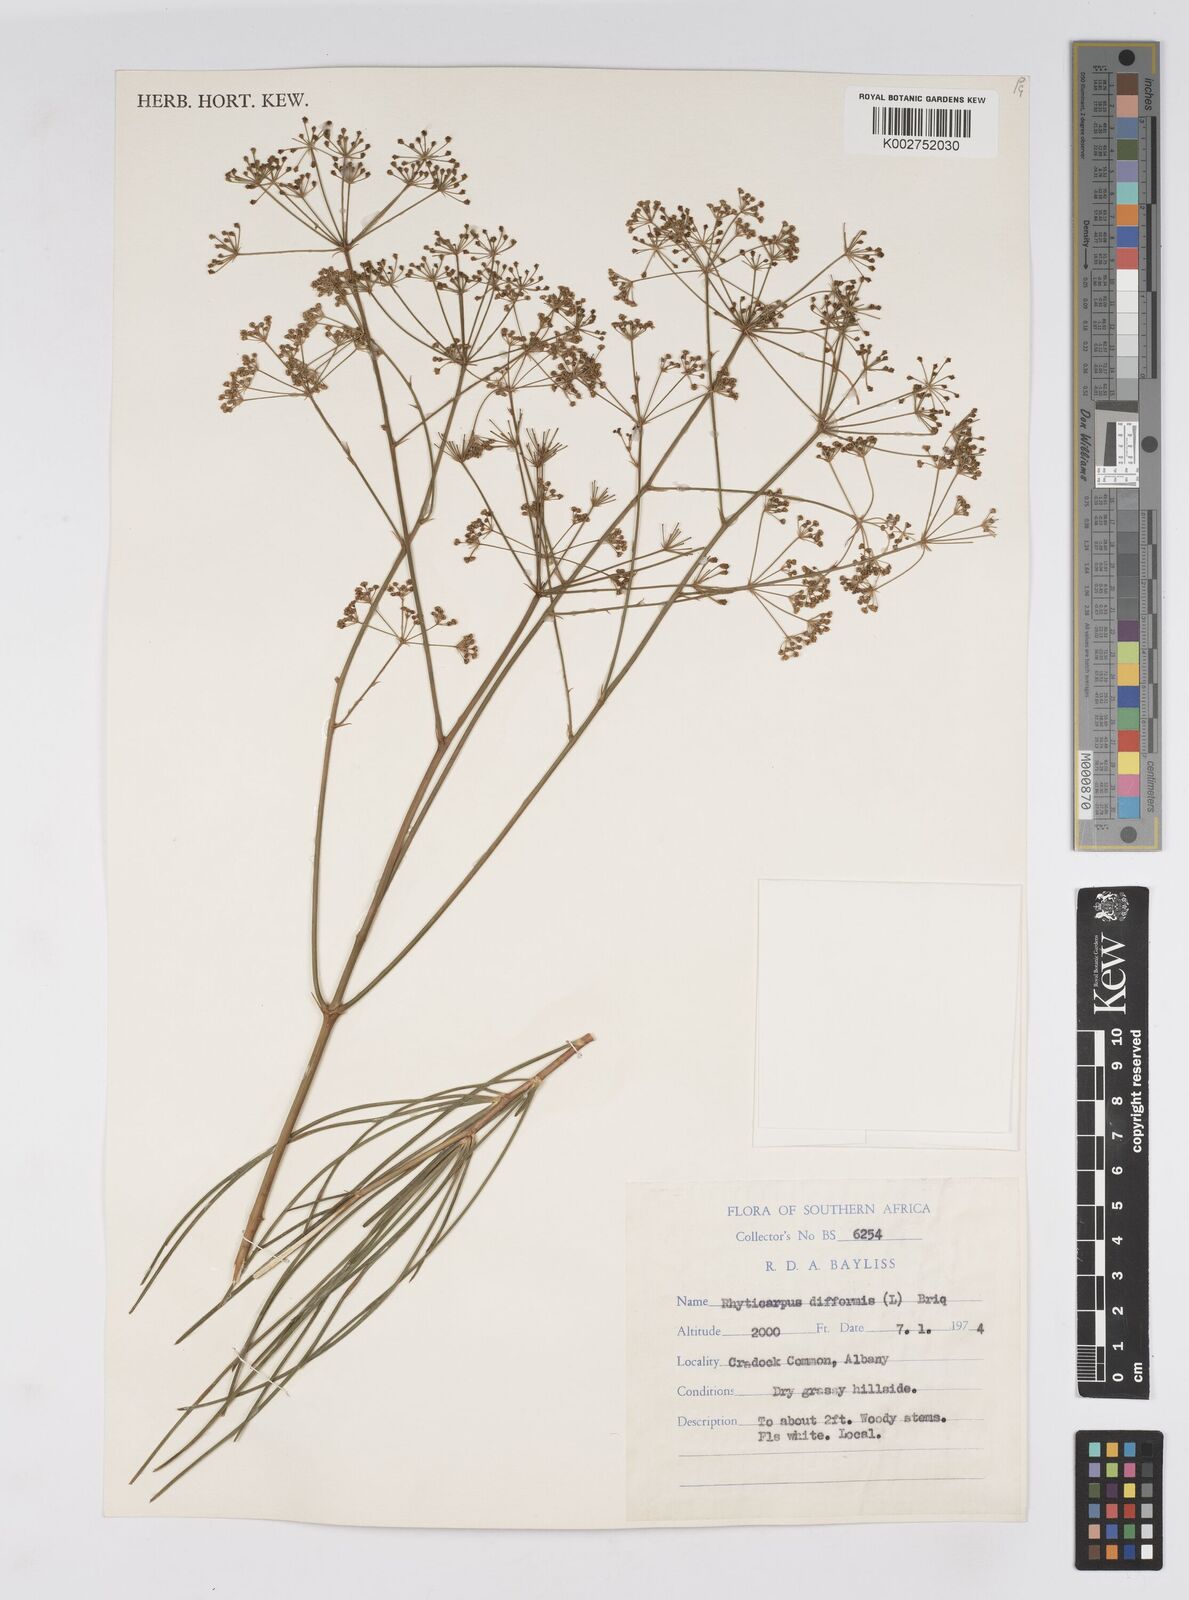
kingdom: Plantae
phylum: Tracheophyta
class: Magnoliopsida
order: Apiales
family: Apiaceae
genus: Anginon
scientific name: Anginon difforme
